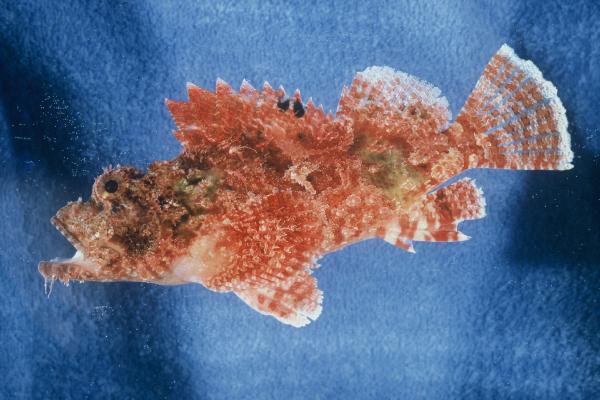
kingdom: Animalia
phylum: Chordata
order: Scorpaeniformes
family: Scorpaenidae
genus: Scorpaenopsis
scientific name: Scorpaenopsis venosa
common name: Raggy scorpionfish
